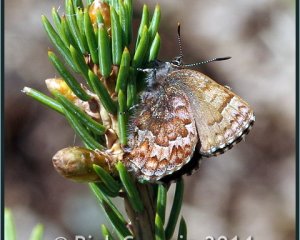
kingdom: Animalia
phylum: Arthropoda
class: Insecta
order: Lepidoptera
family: Lycaenidae
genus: Incisalia
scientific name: Incisalia niphon
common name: Eastern Pine Elfin
